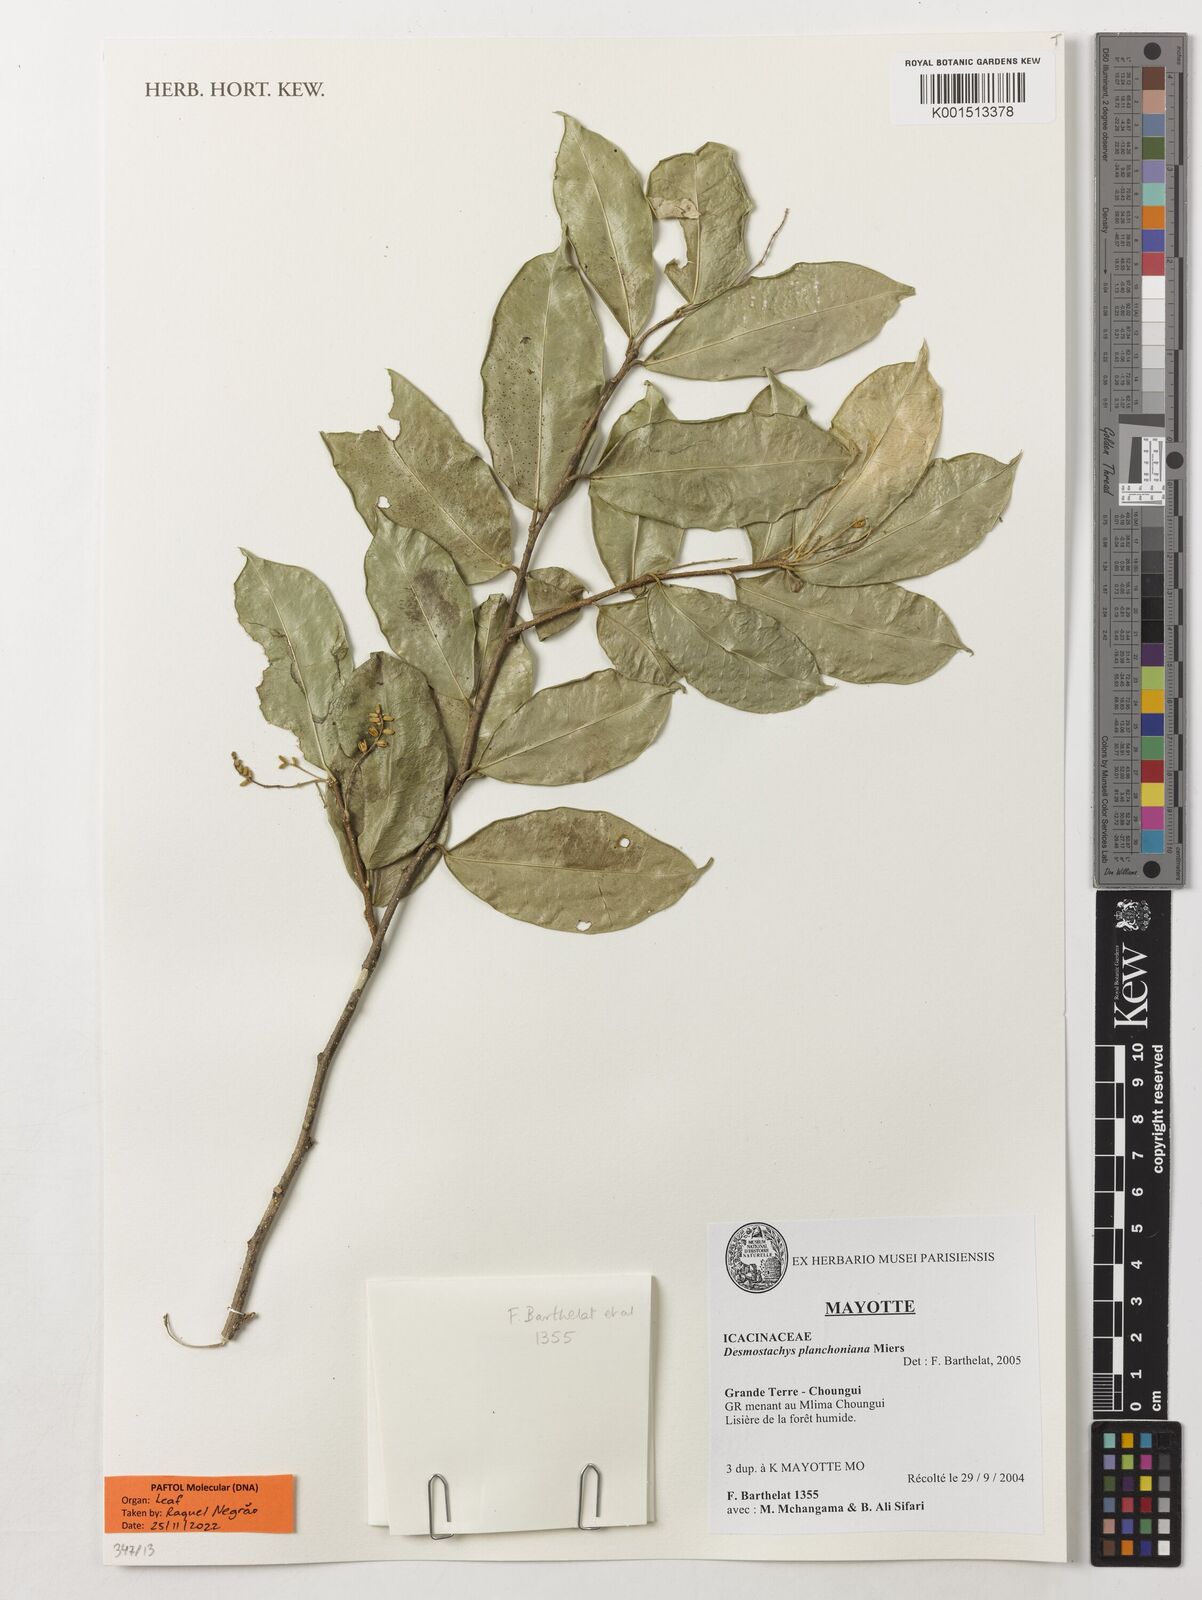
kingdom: Plantae
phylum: Tracheophyta
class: Magnoliopsida
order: Icacinales
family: Icacinaceae
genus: Desmostachys
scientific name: Desmostachys planchonianus
